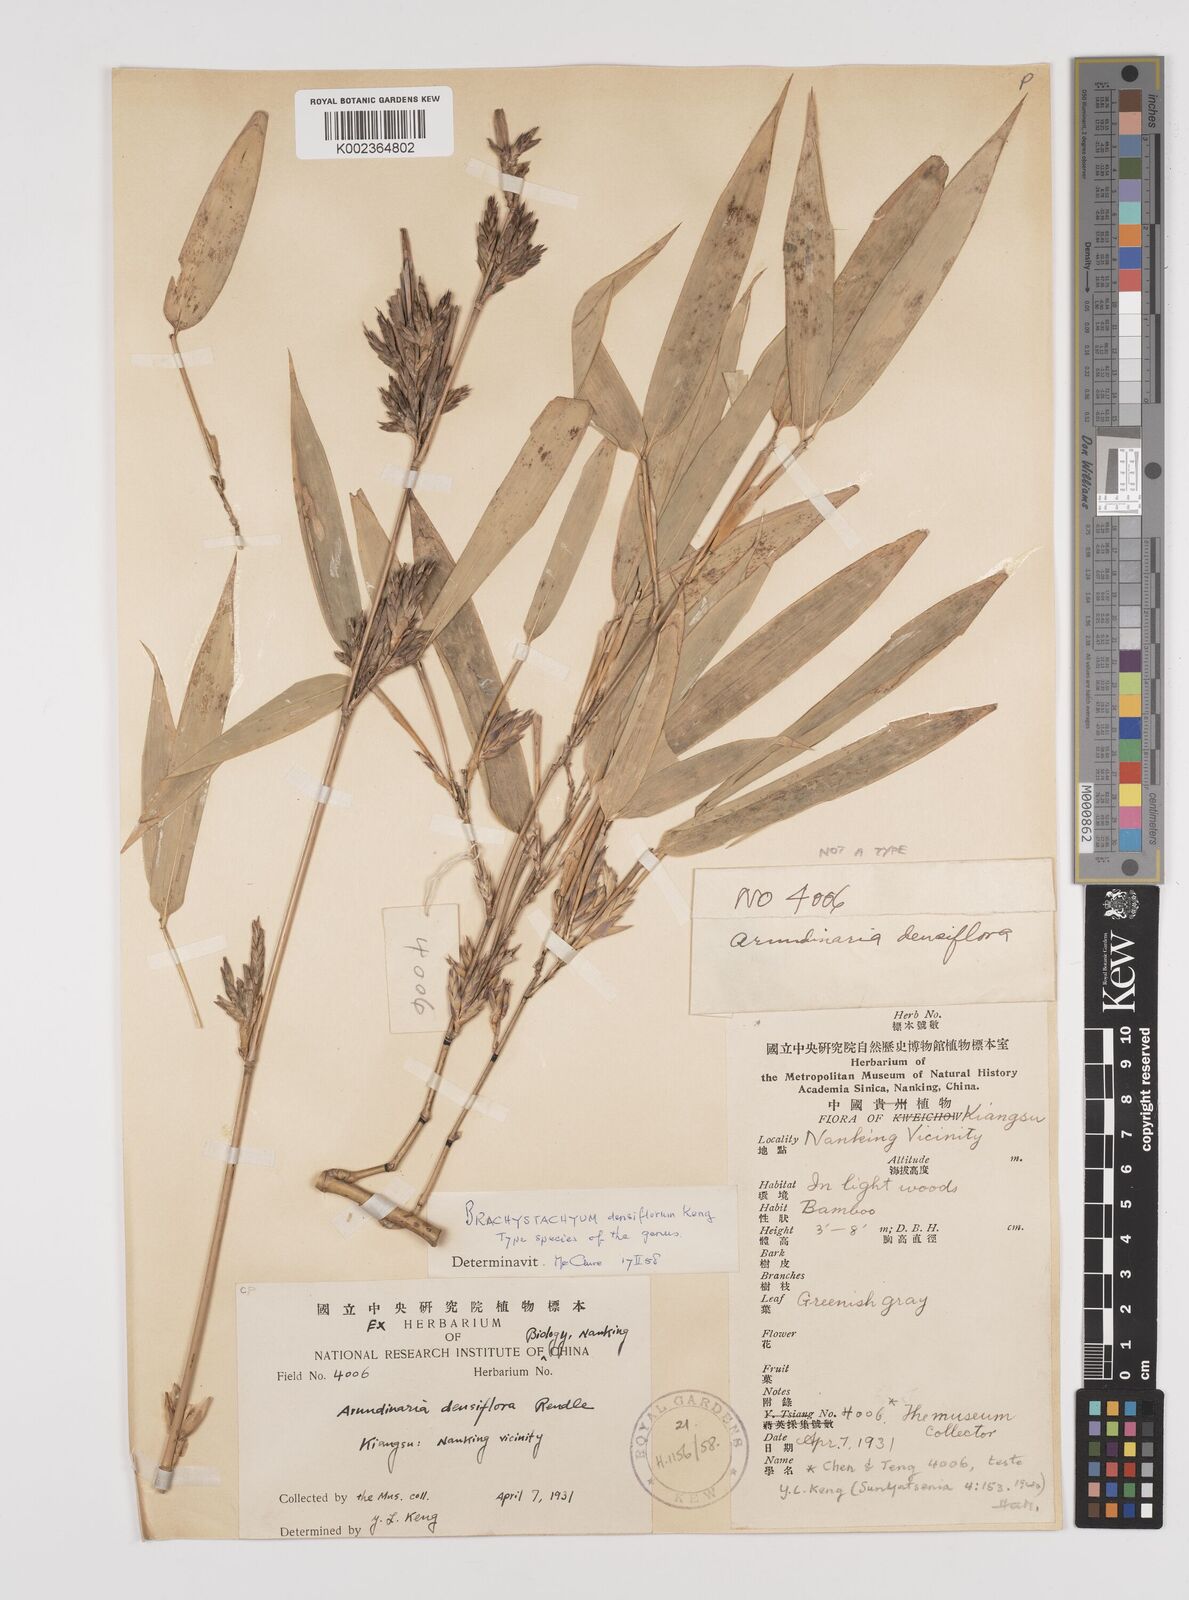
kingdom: Plantae
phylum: Tracheophyta
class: Liliopsida
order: Poales
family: Poaceae
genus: Brachystachyum
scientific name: Brachystachyum densiflorum
